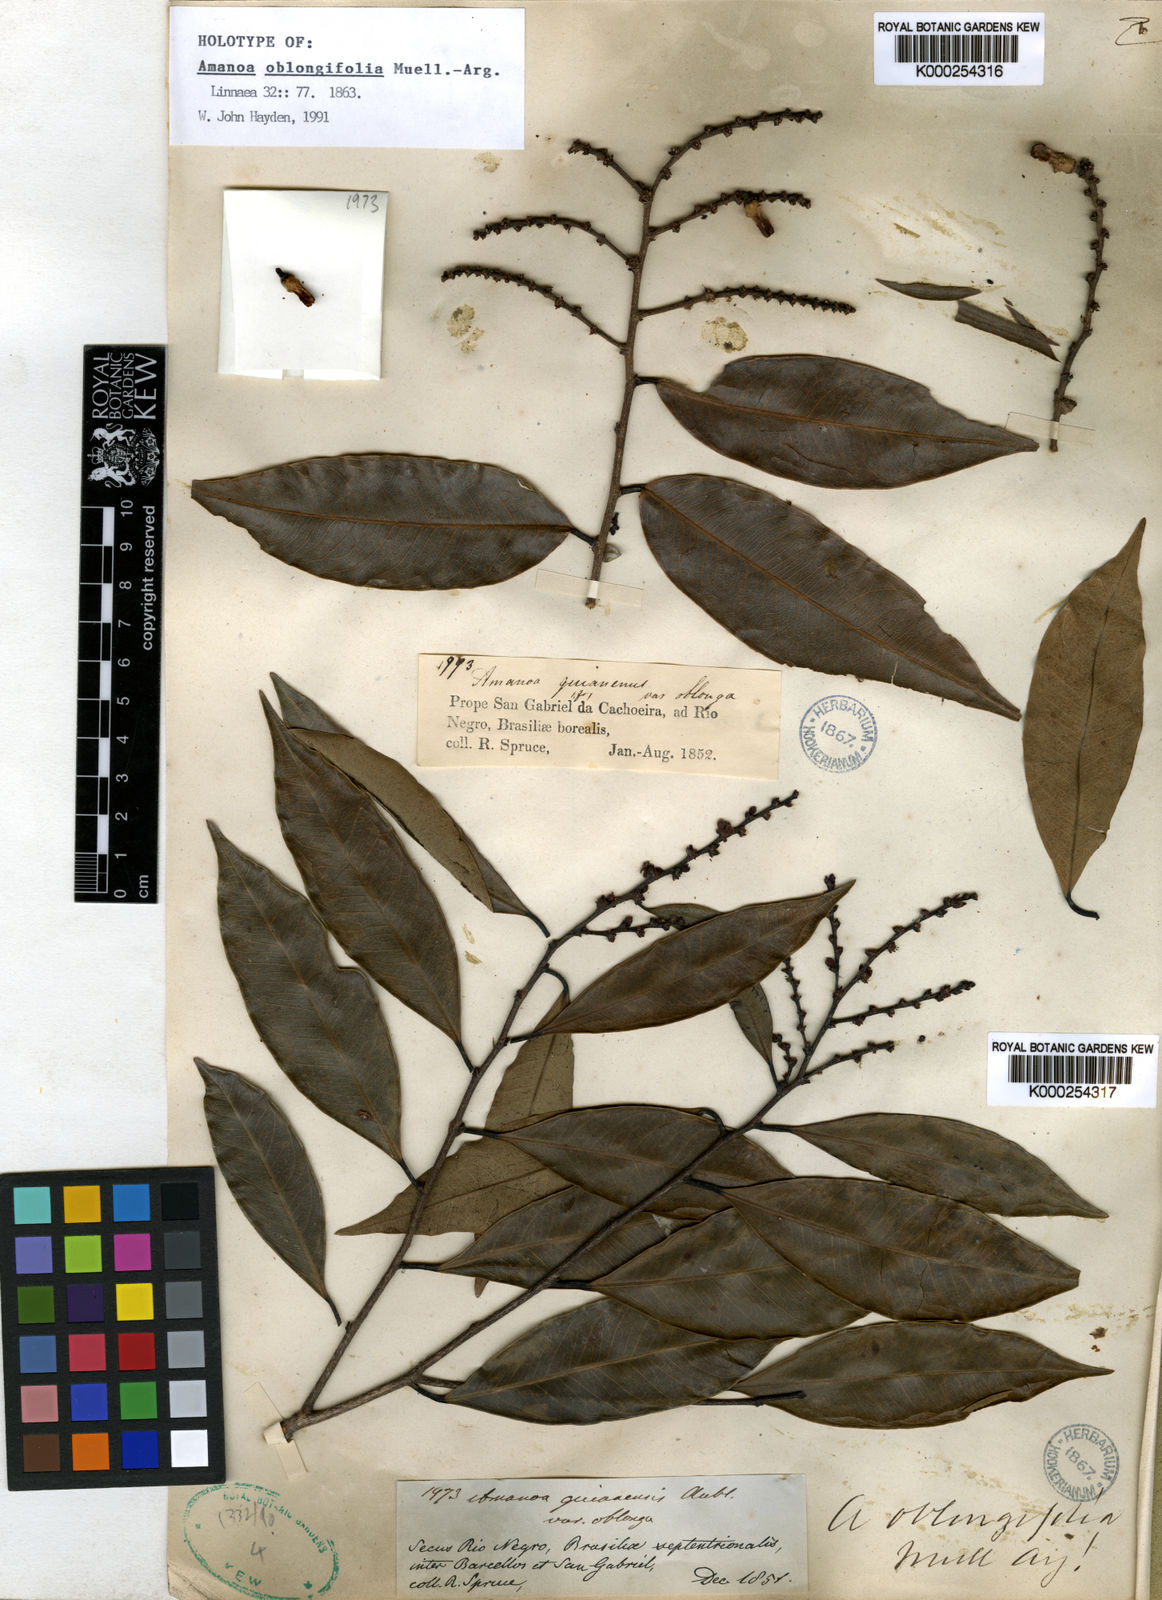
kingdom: Plantae
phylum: Tracheophyta
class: Magnoliopsida
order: Malpighiales
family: Phyllanthaceae
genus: Amanoa
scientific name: Amanoa
